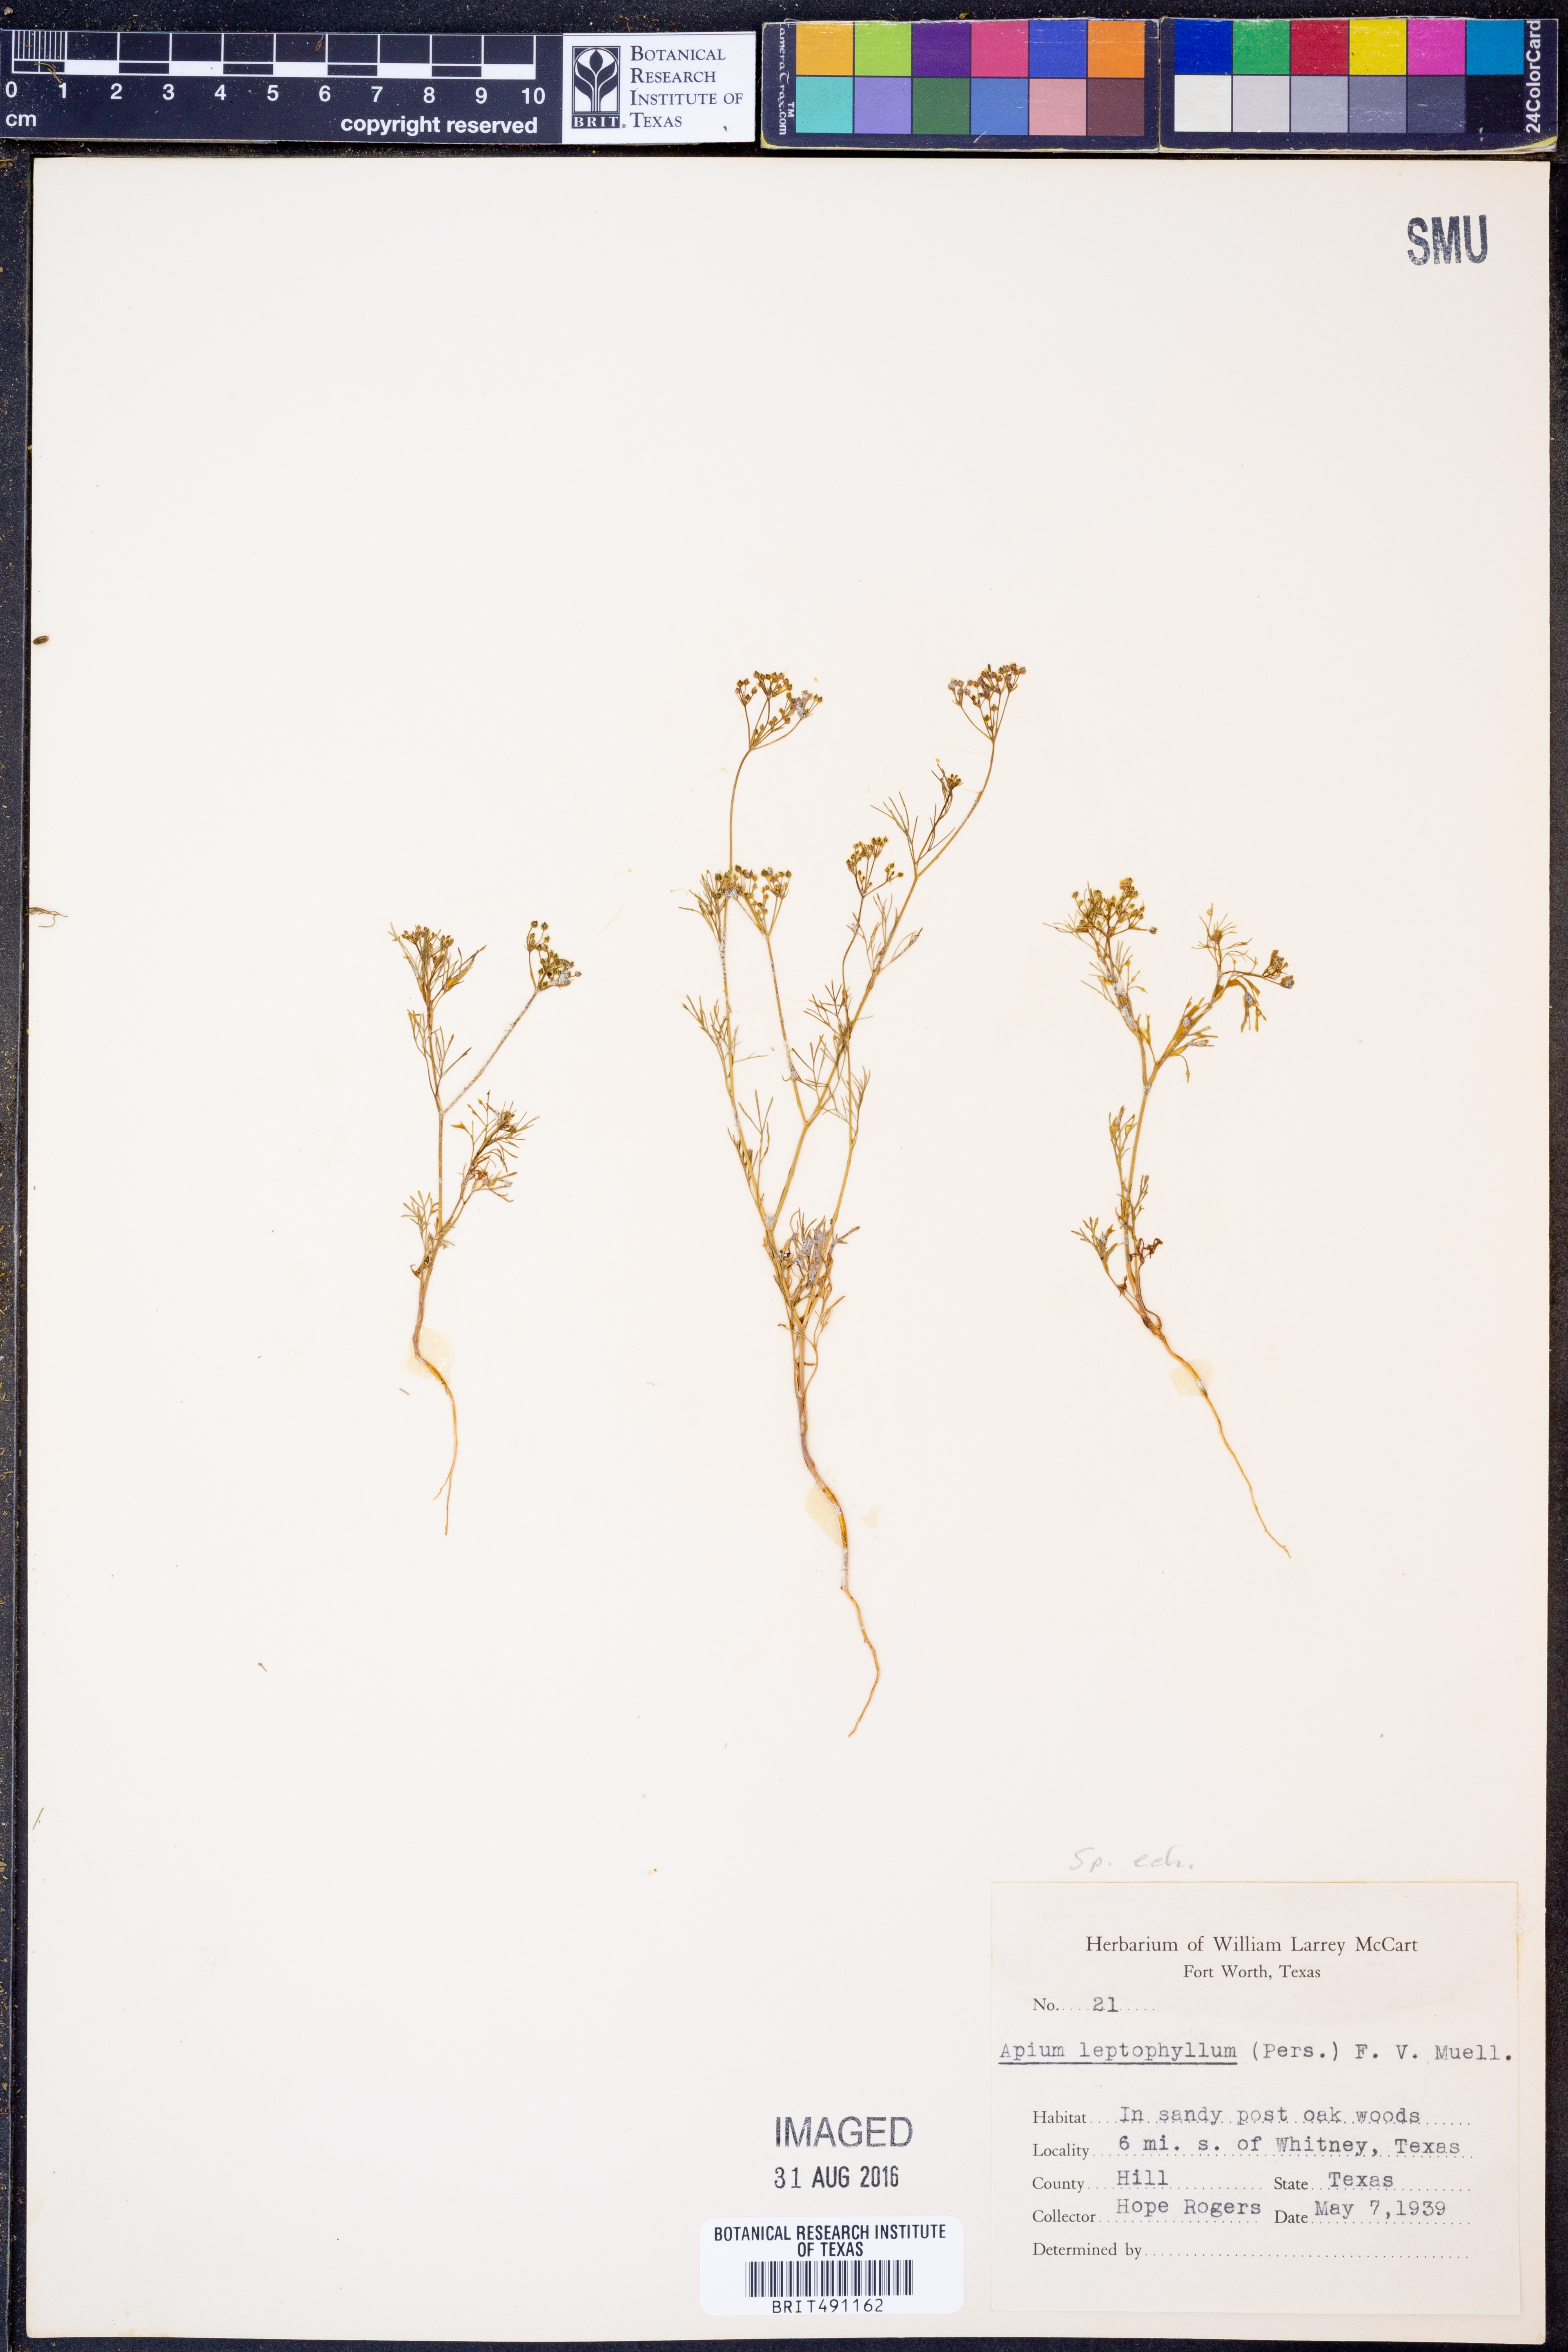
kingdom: Plantae
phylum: Tracheophyta
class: Magnoliopsida
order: Apiales
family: Apiaceae
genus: Spermolepis
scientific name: Spermolepis echinata
